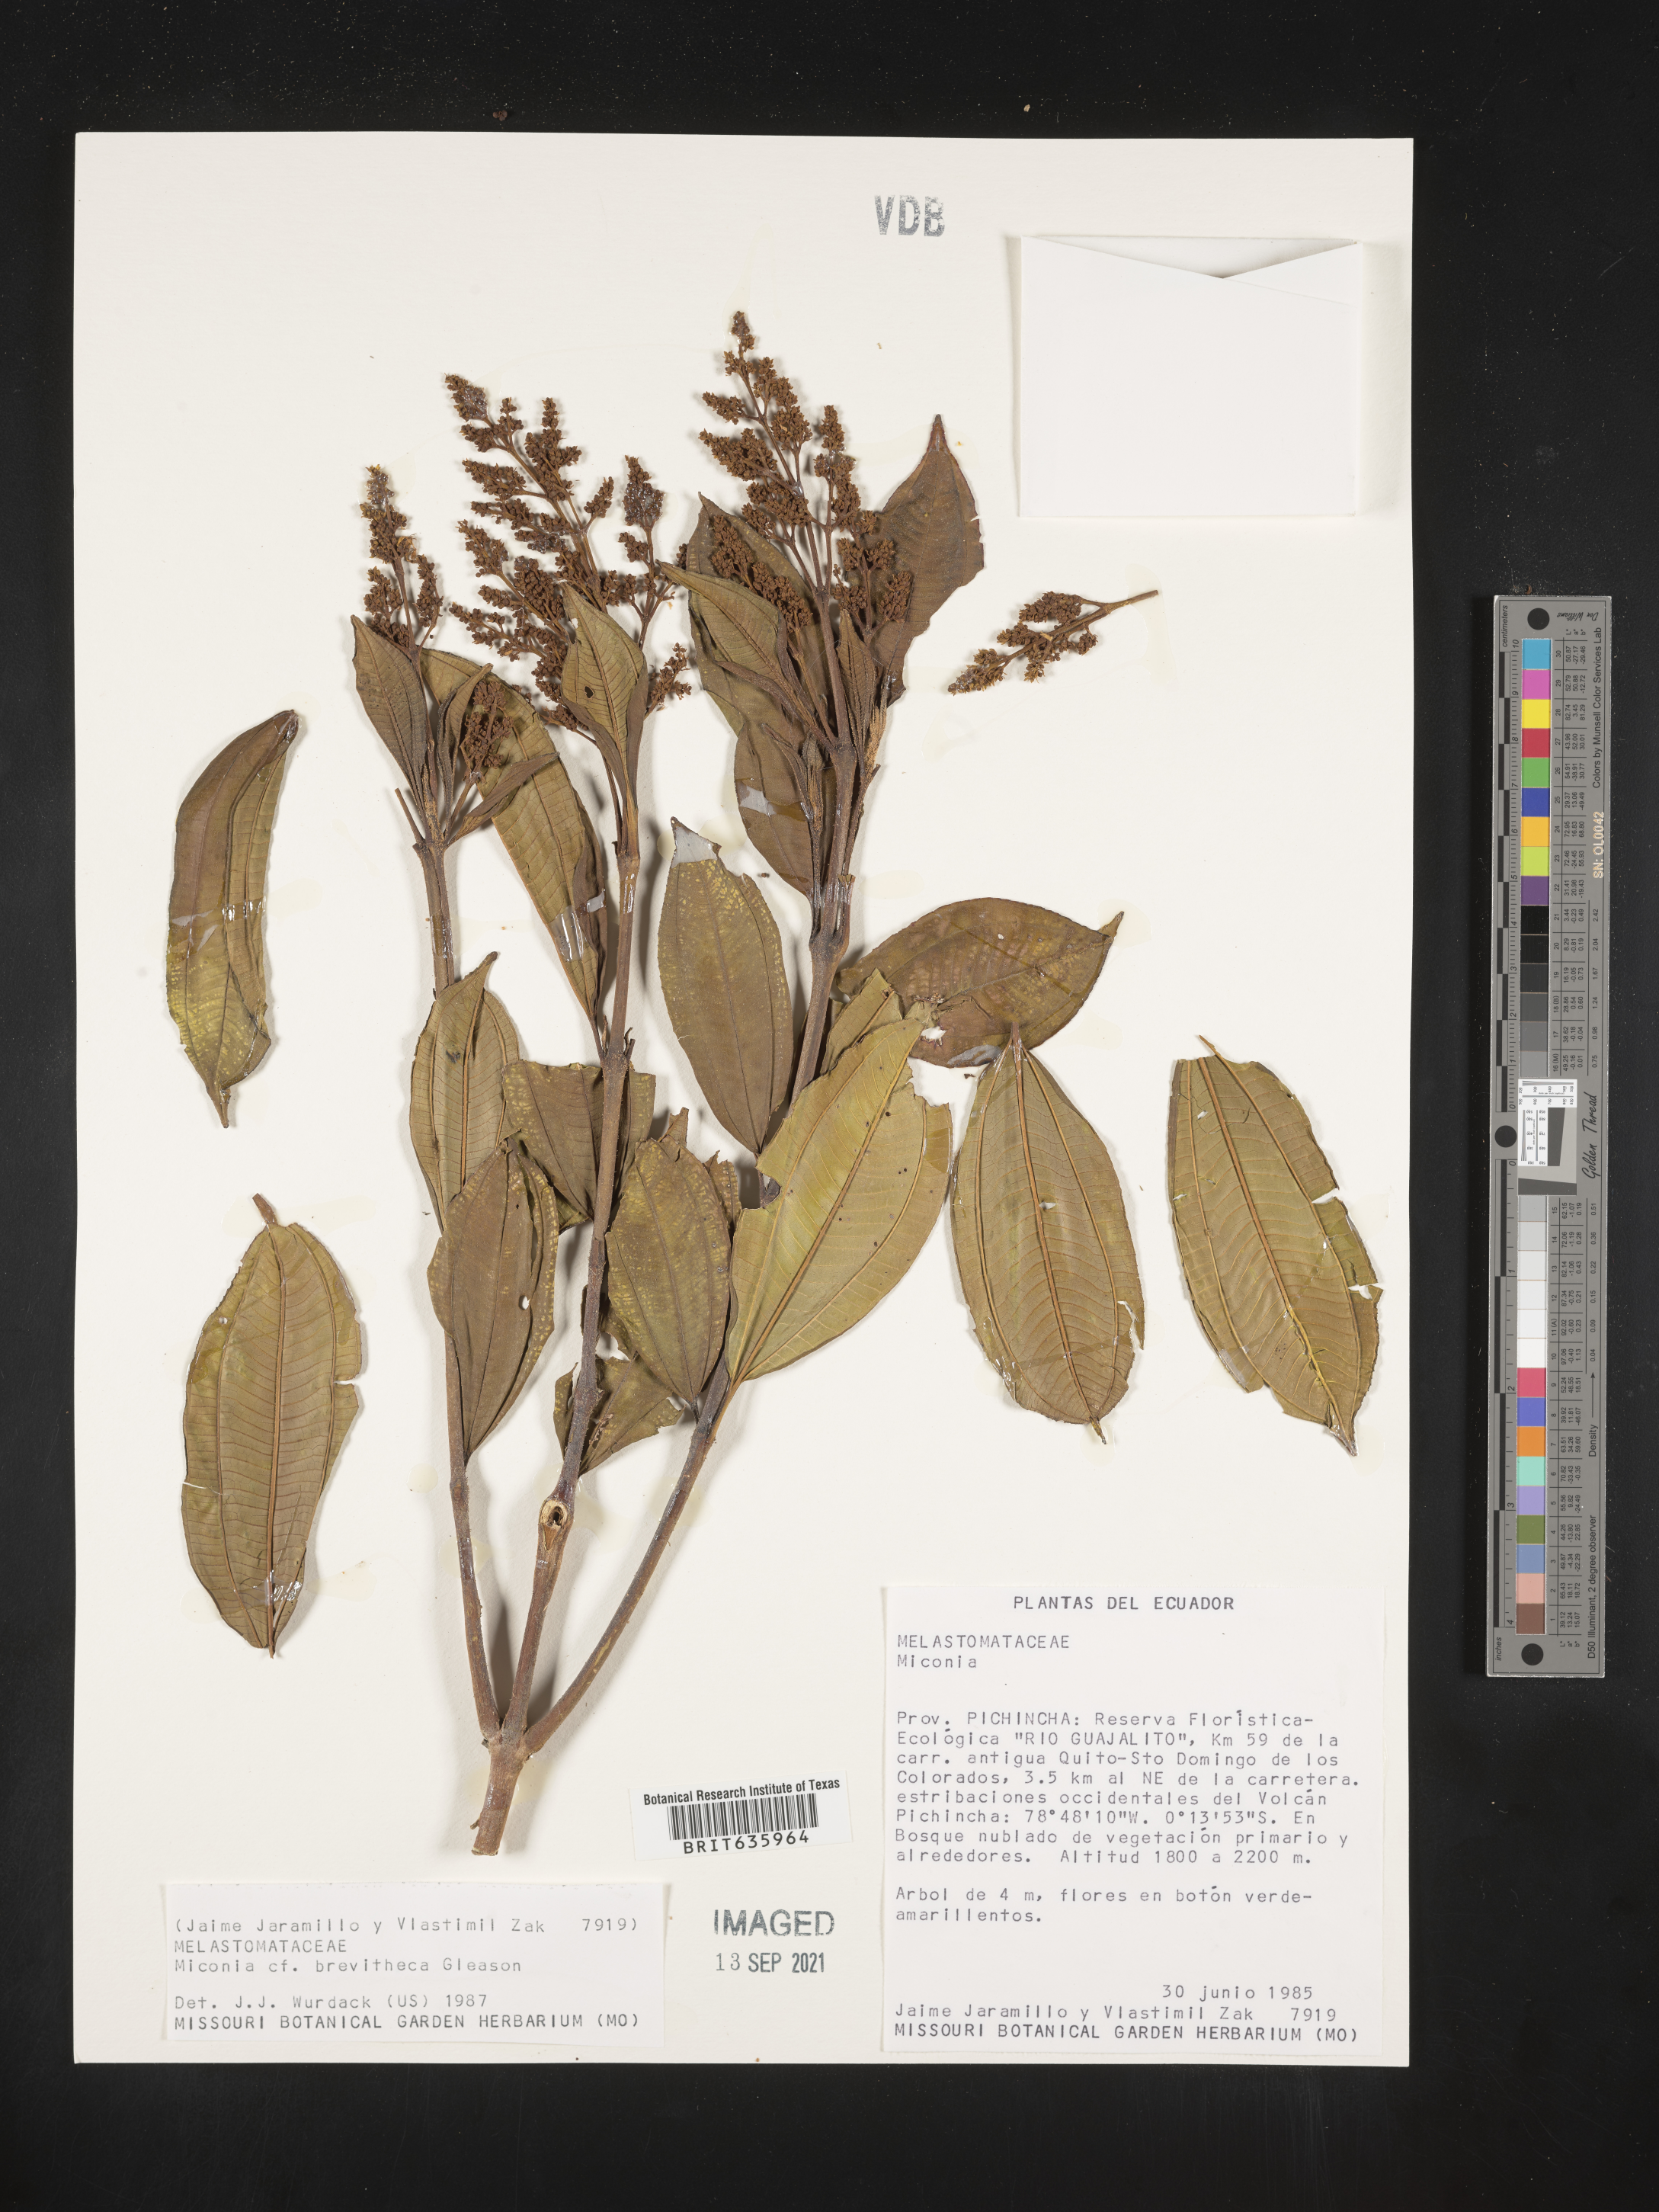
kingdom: Plantae
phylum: Tracheophyta
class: Magnoliopsida
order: Myrtales
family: Melastomataceae
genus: Miconia
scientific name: Miconia
